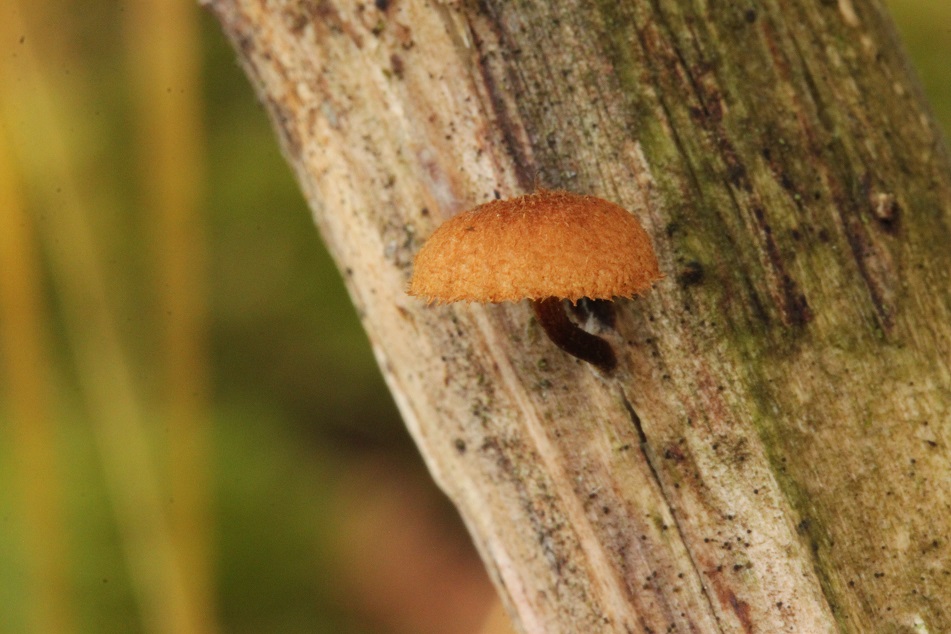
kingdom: Fungi
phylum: Basidiomycota
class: Agaricomycetes
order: Agaricales
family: Tubariaceae
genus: Phaeomarasmius
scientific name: Phaeomarasmius erinaceus
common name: spidsskælhat
